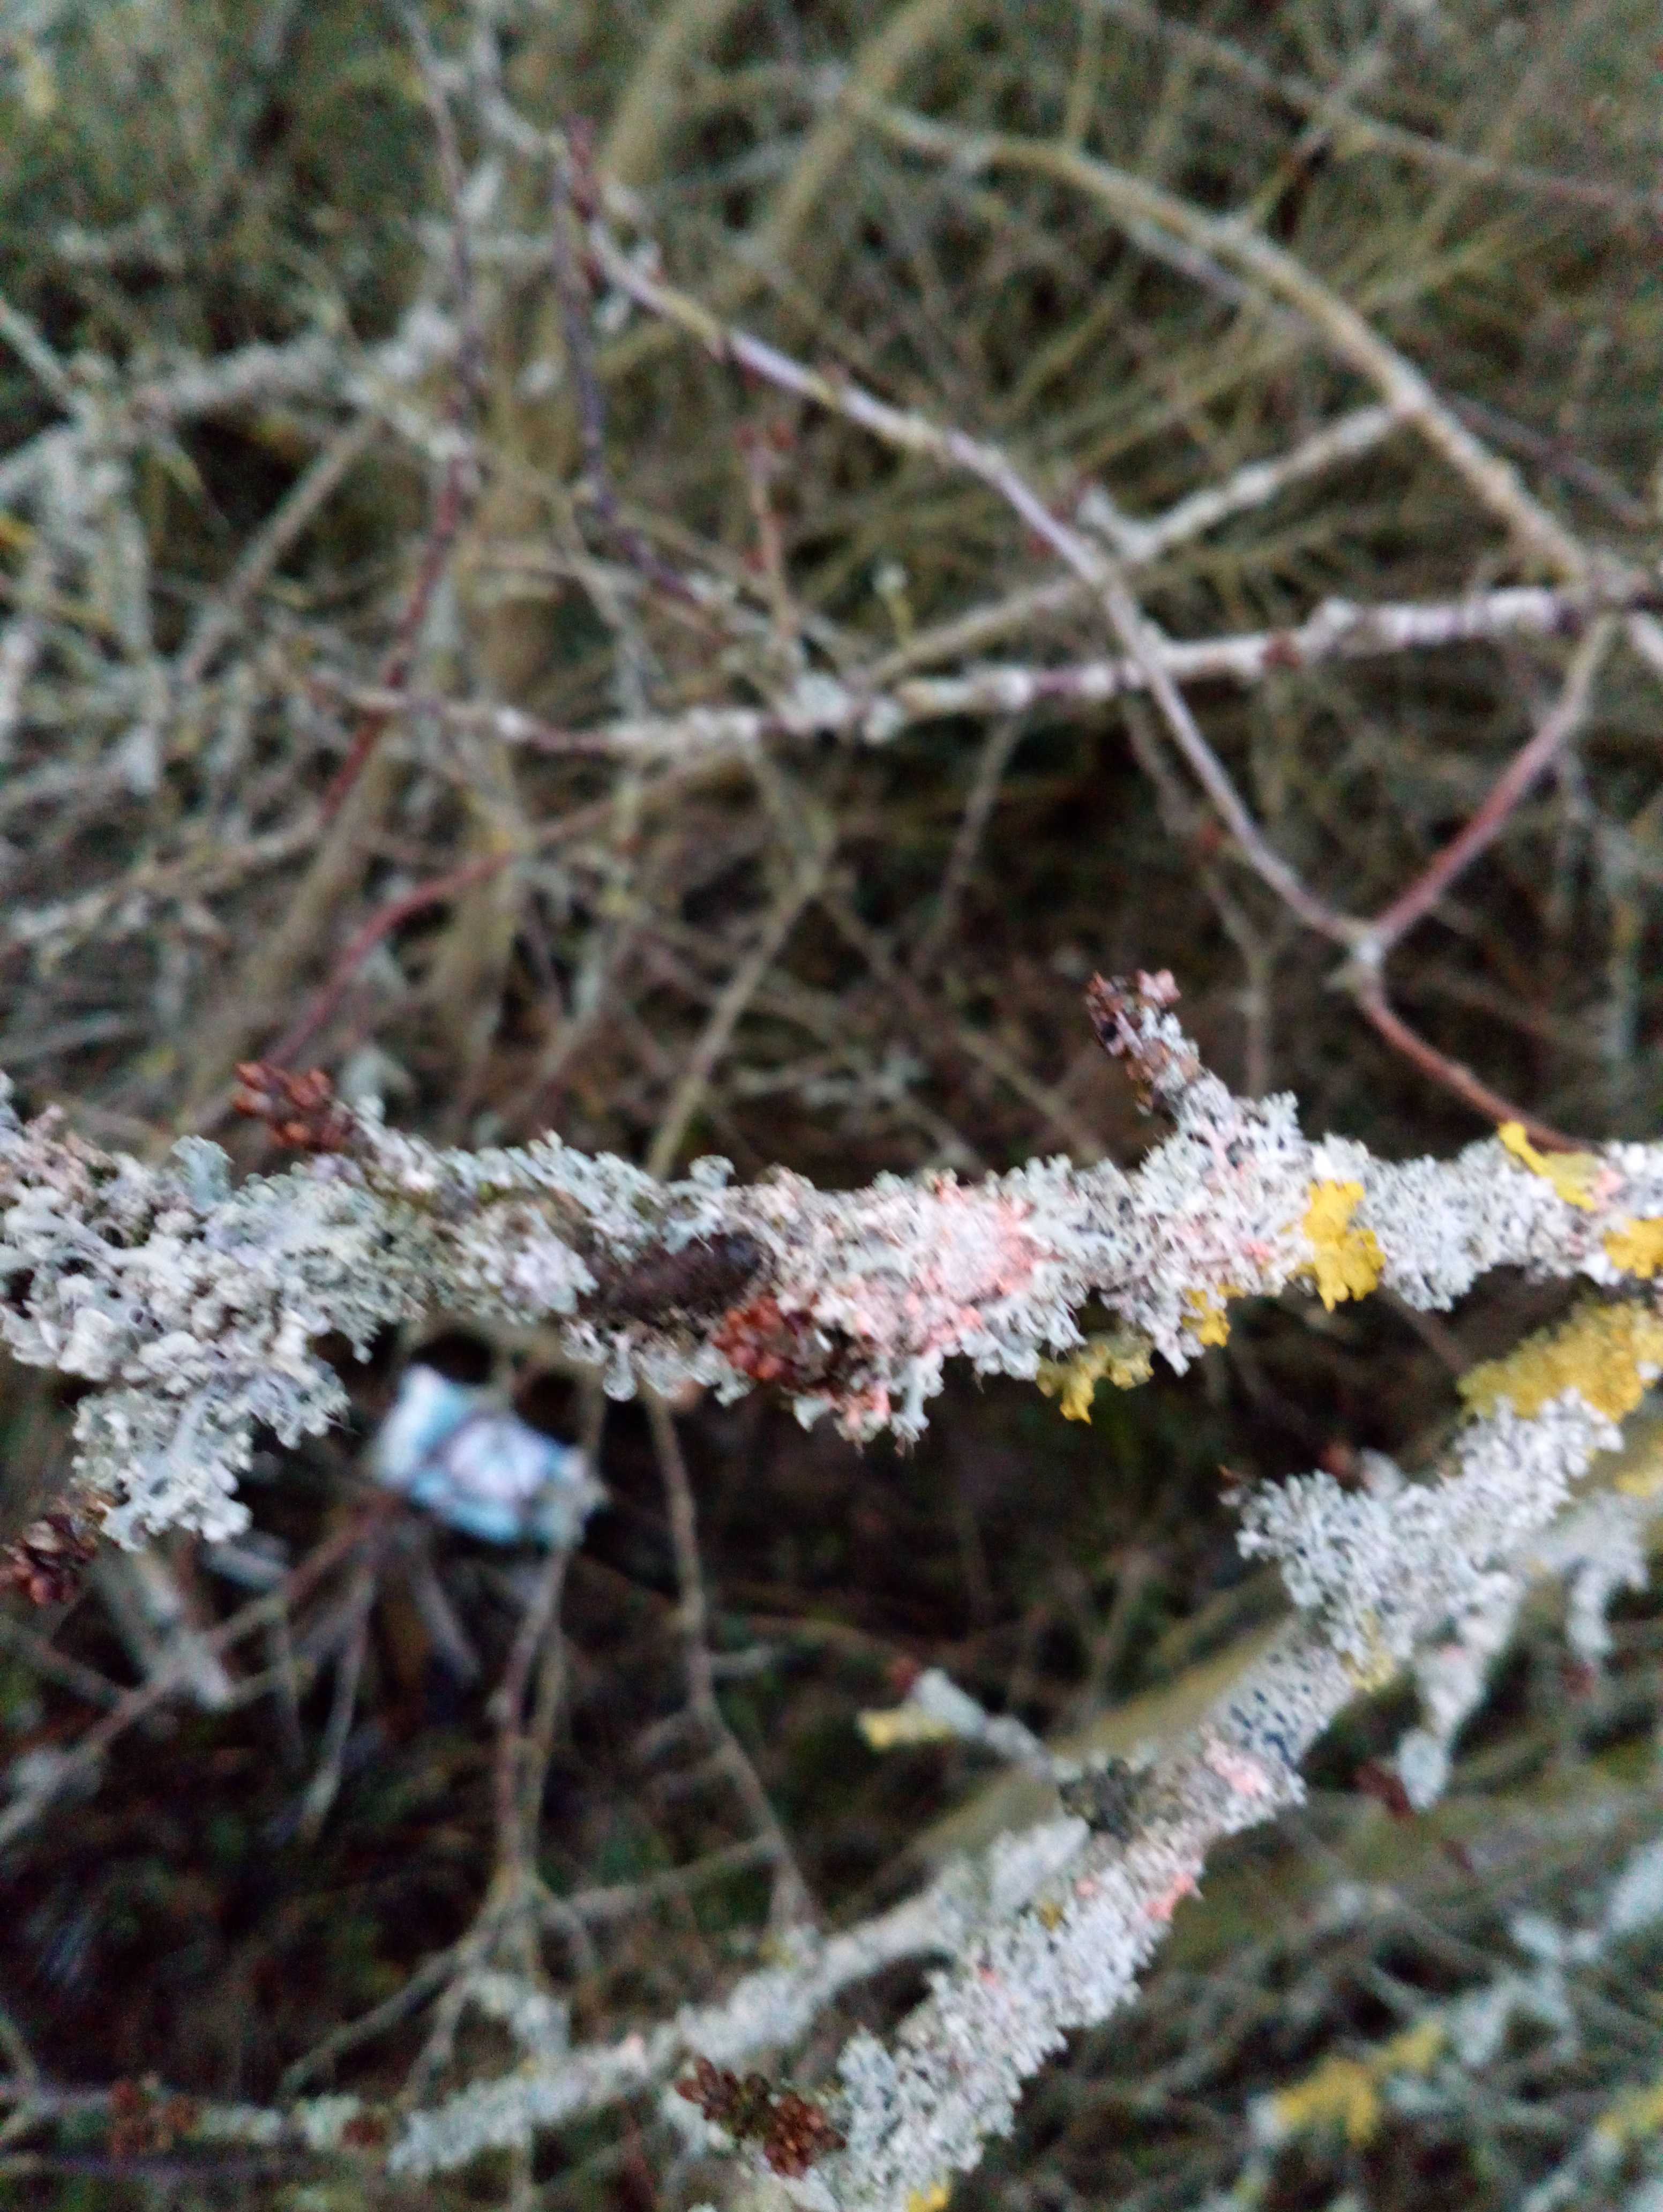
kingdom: Fungi
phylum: Ascomycota
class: Lecanoromycetes
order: Caliciales
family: Physciaceae
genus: Physcia
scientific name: Physcia tenella
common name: spæd rosetlav
